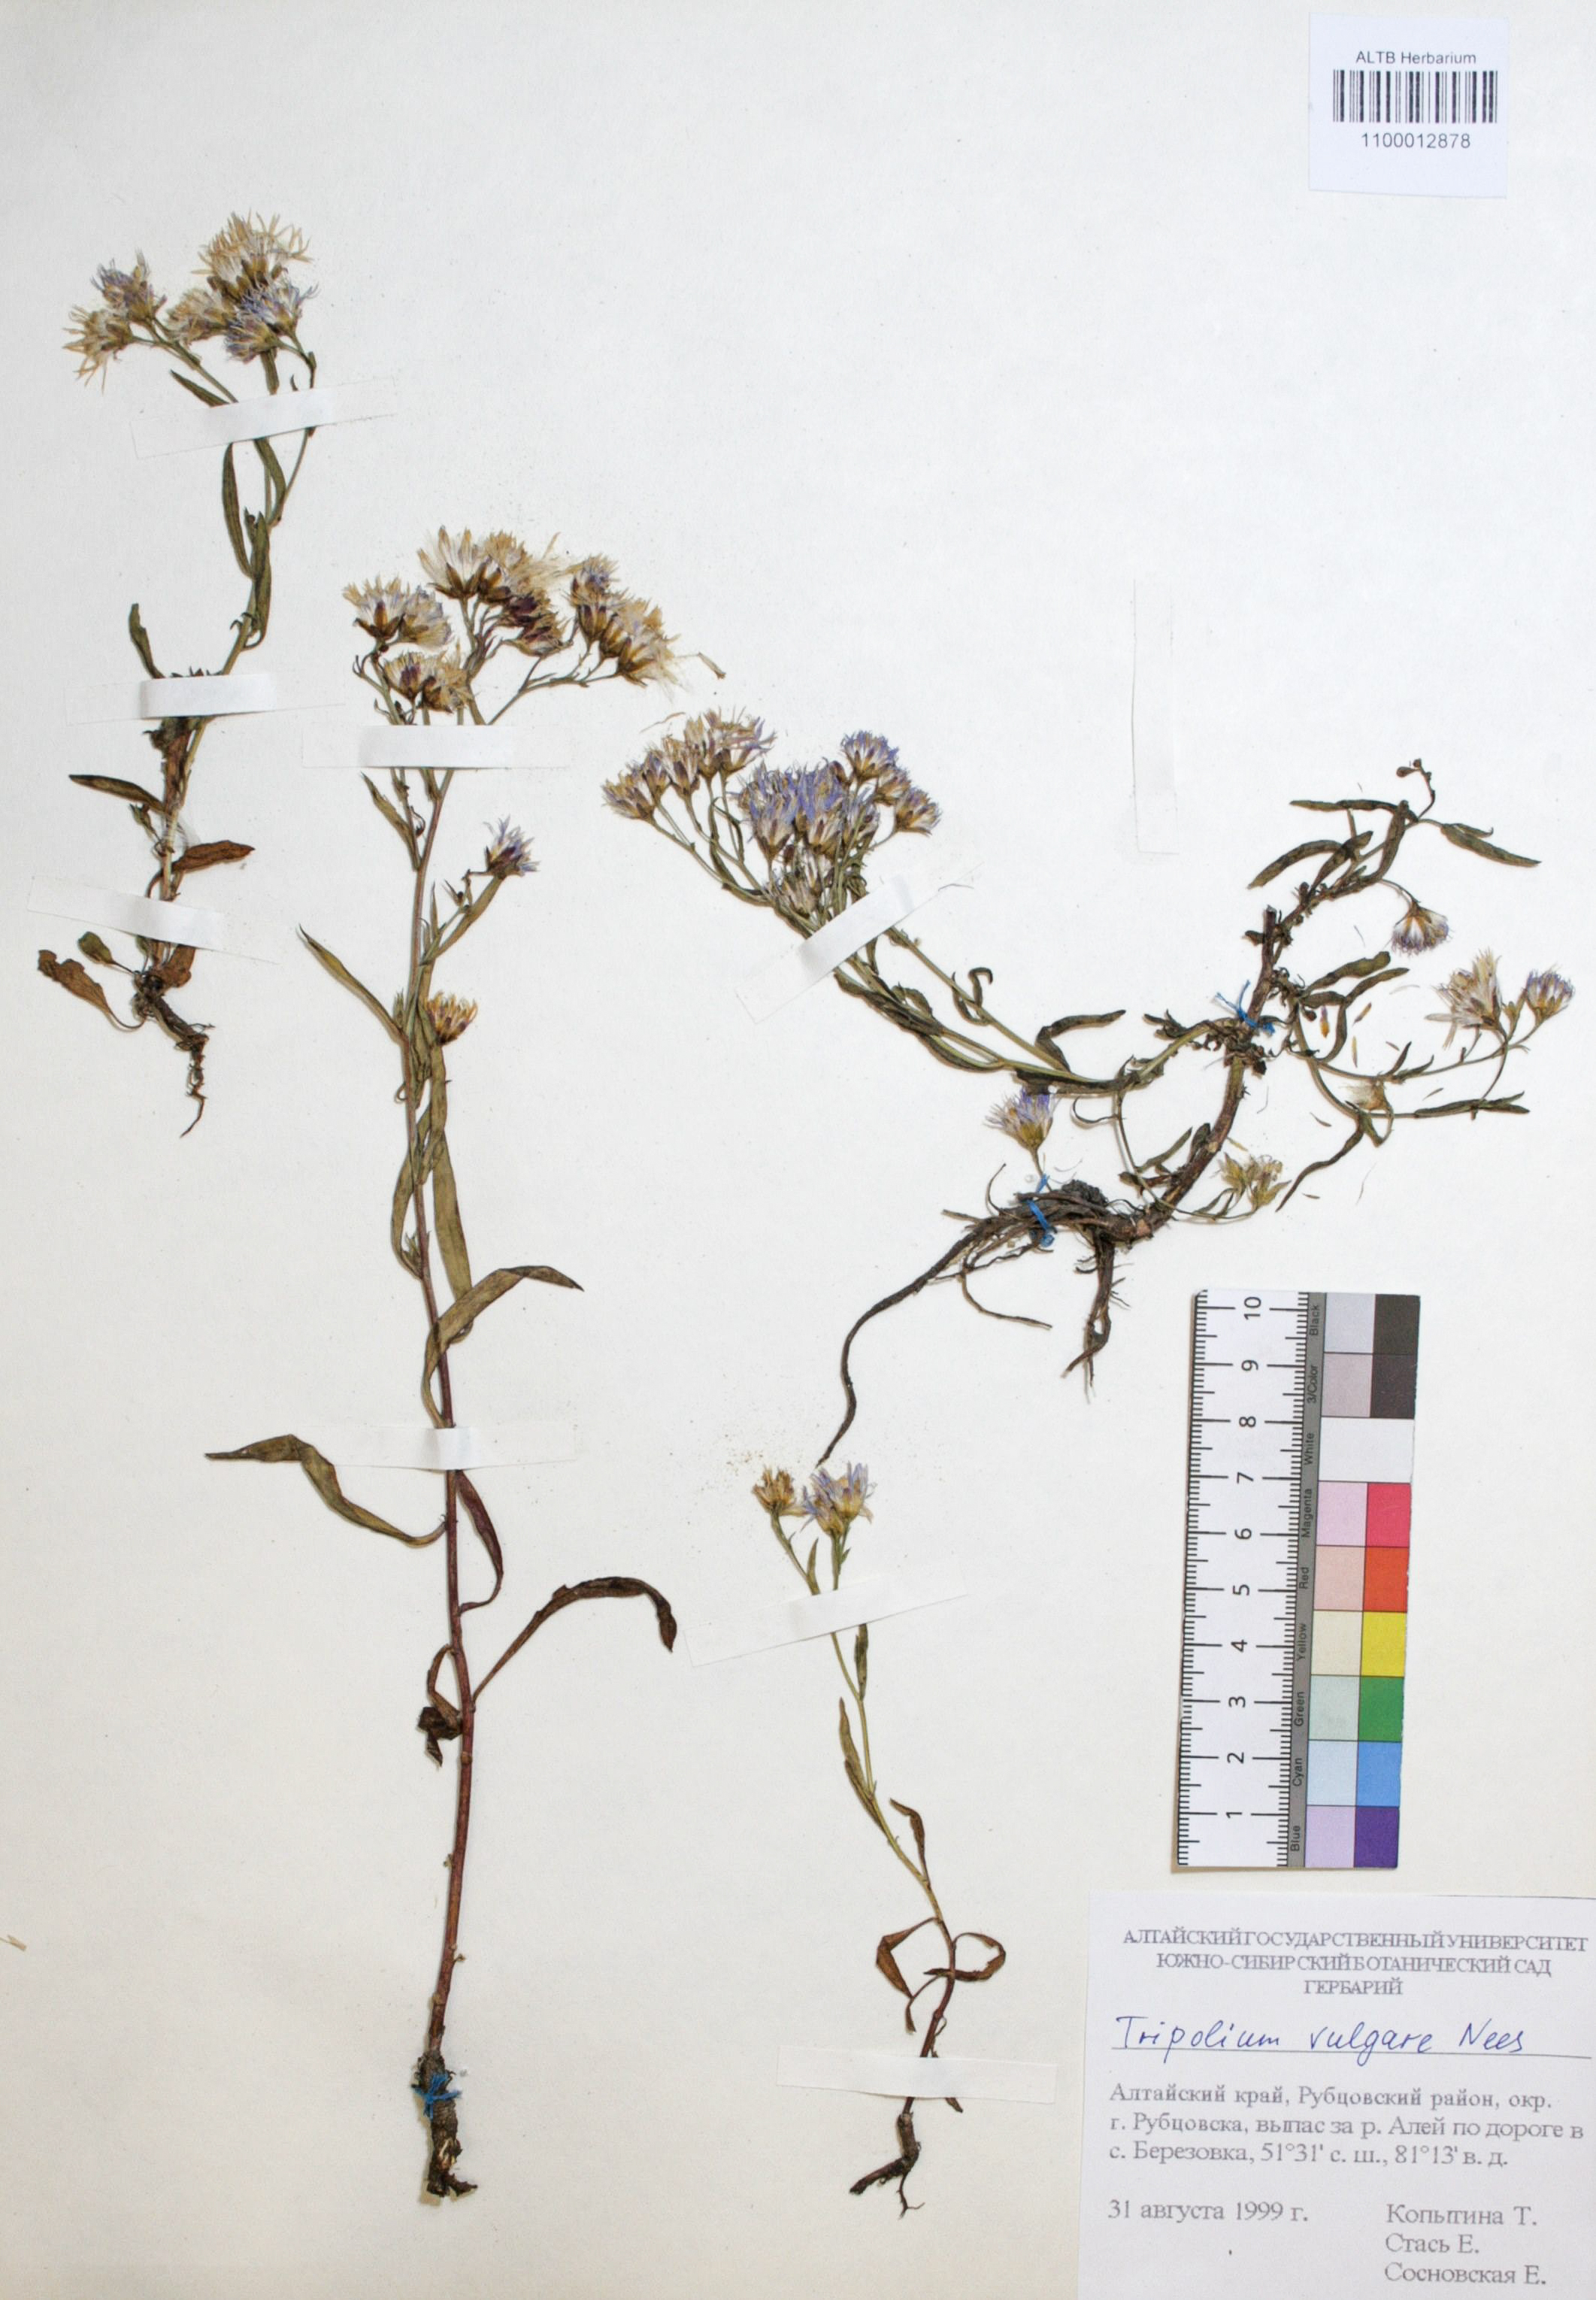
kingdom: Plantae
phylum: Tracheophyta
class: Magnoliopsida
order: Asterales
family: Asteraceae
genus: Tripolium
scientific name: Tripolium pannonicum
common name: Sea aster
